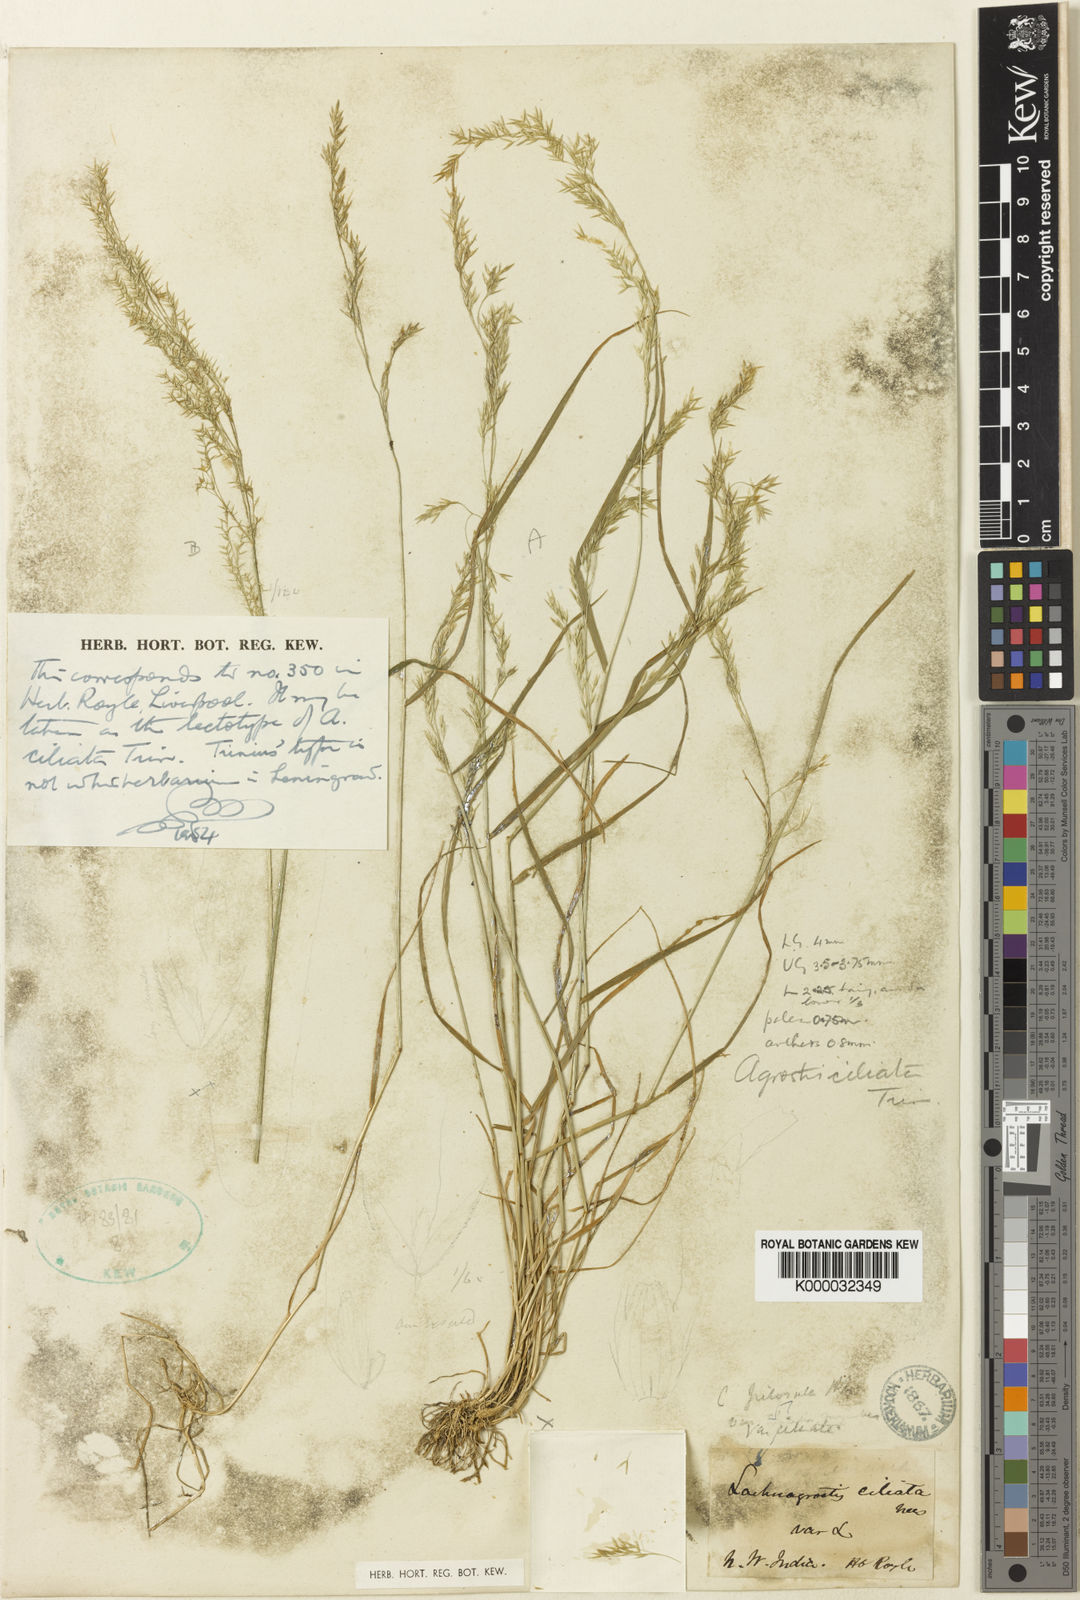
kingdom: Plantae
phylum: Tracheophyta
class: Liliopsida
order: Poales
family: Poaceae
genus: Agrostis
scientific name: Agrostis pilosula
